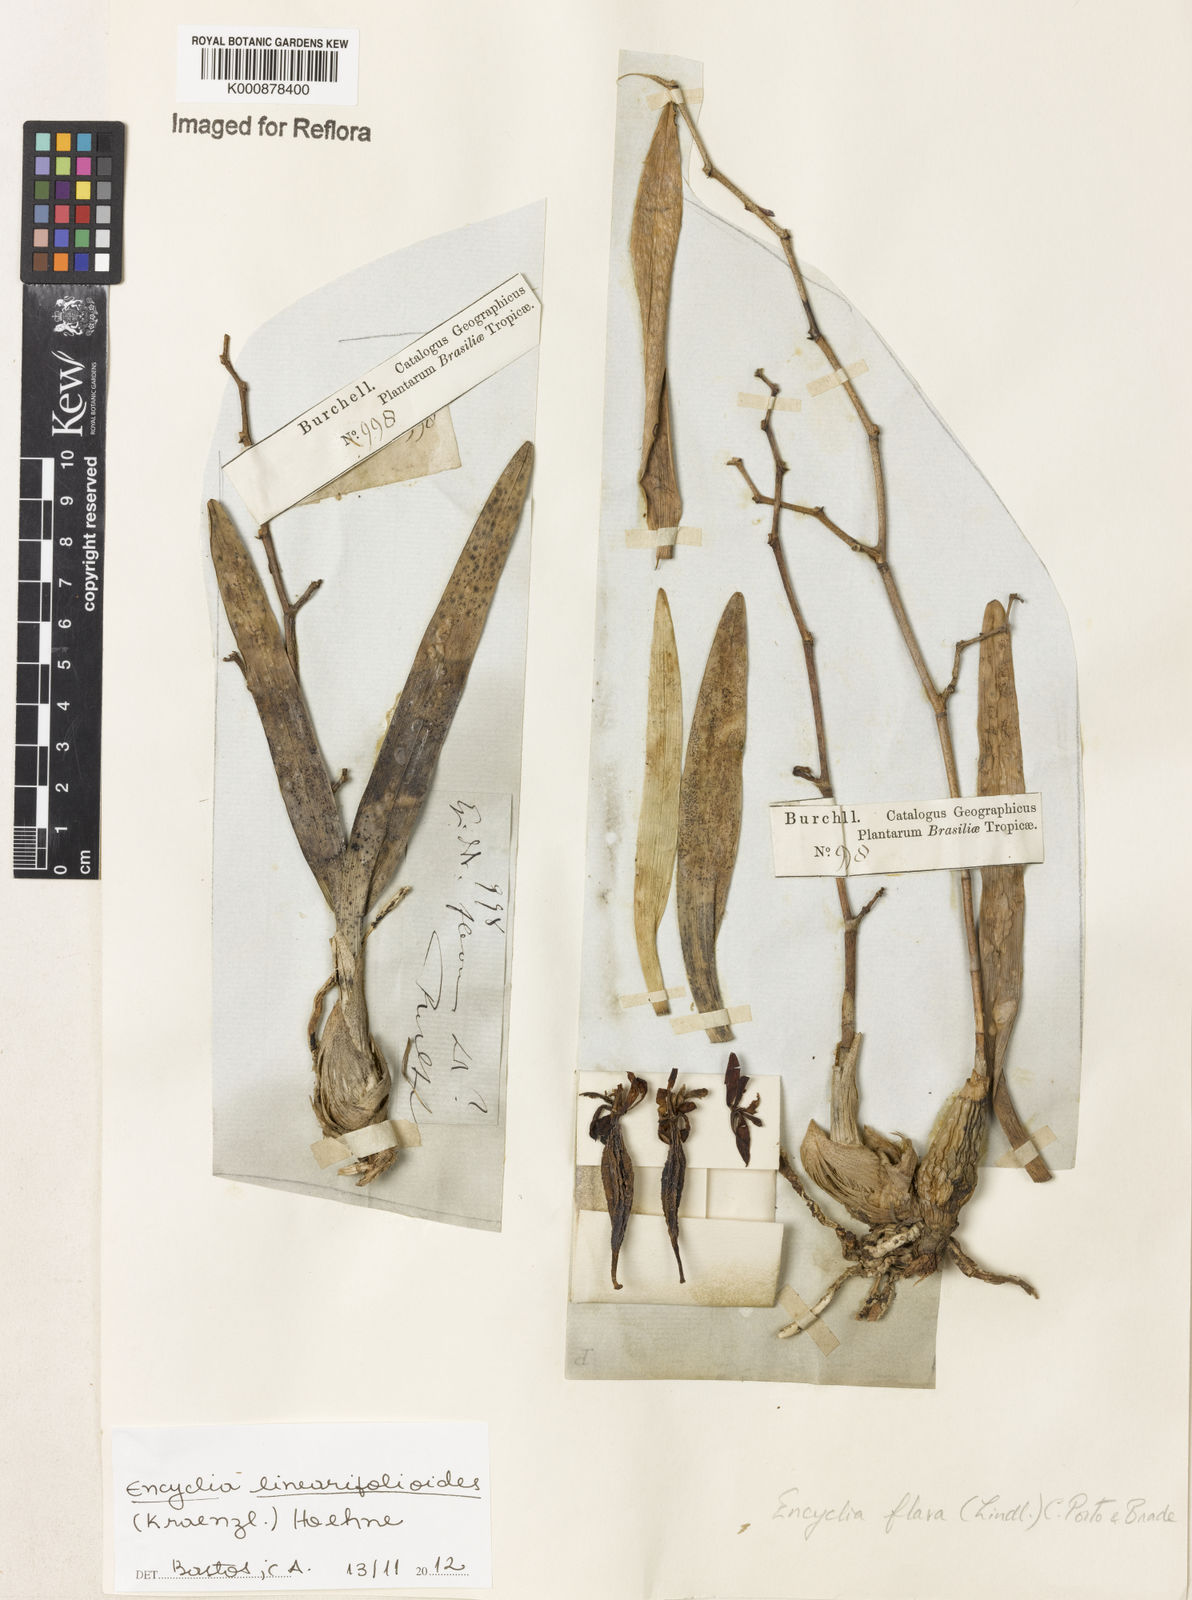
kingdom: Plantae
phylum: Tracheophyta
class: Liliopsida
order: Asparagales
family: Orchidaceae
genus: Encyclia
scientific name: Encyclia linearifolioides
